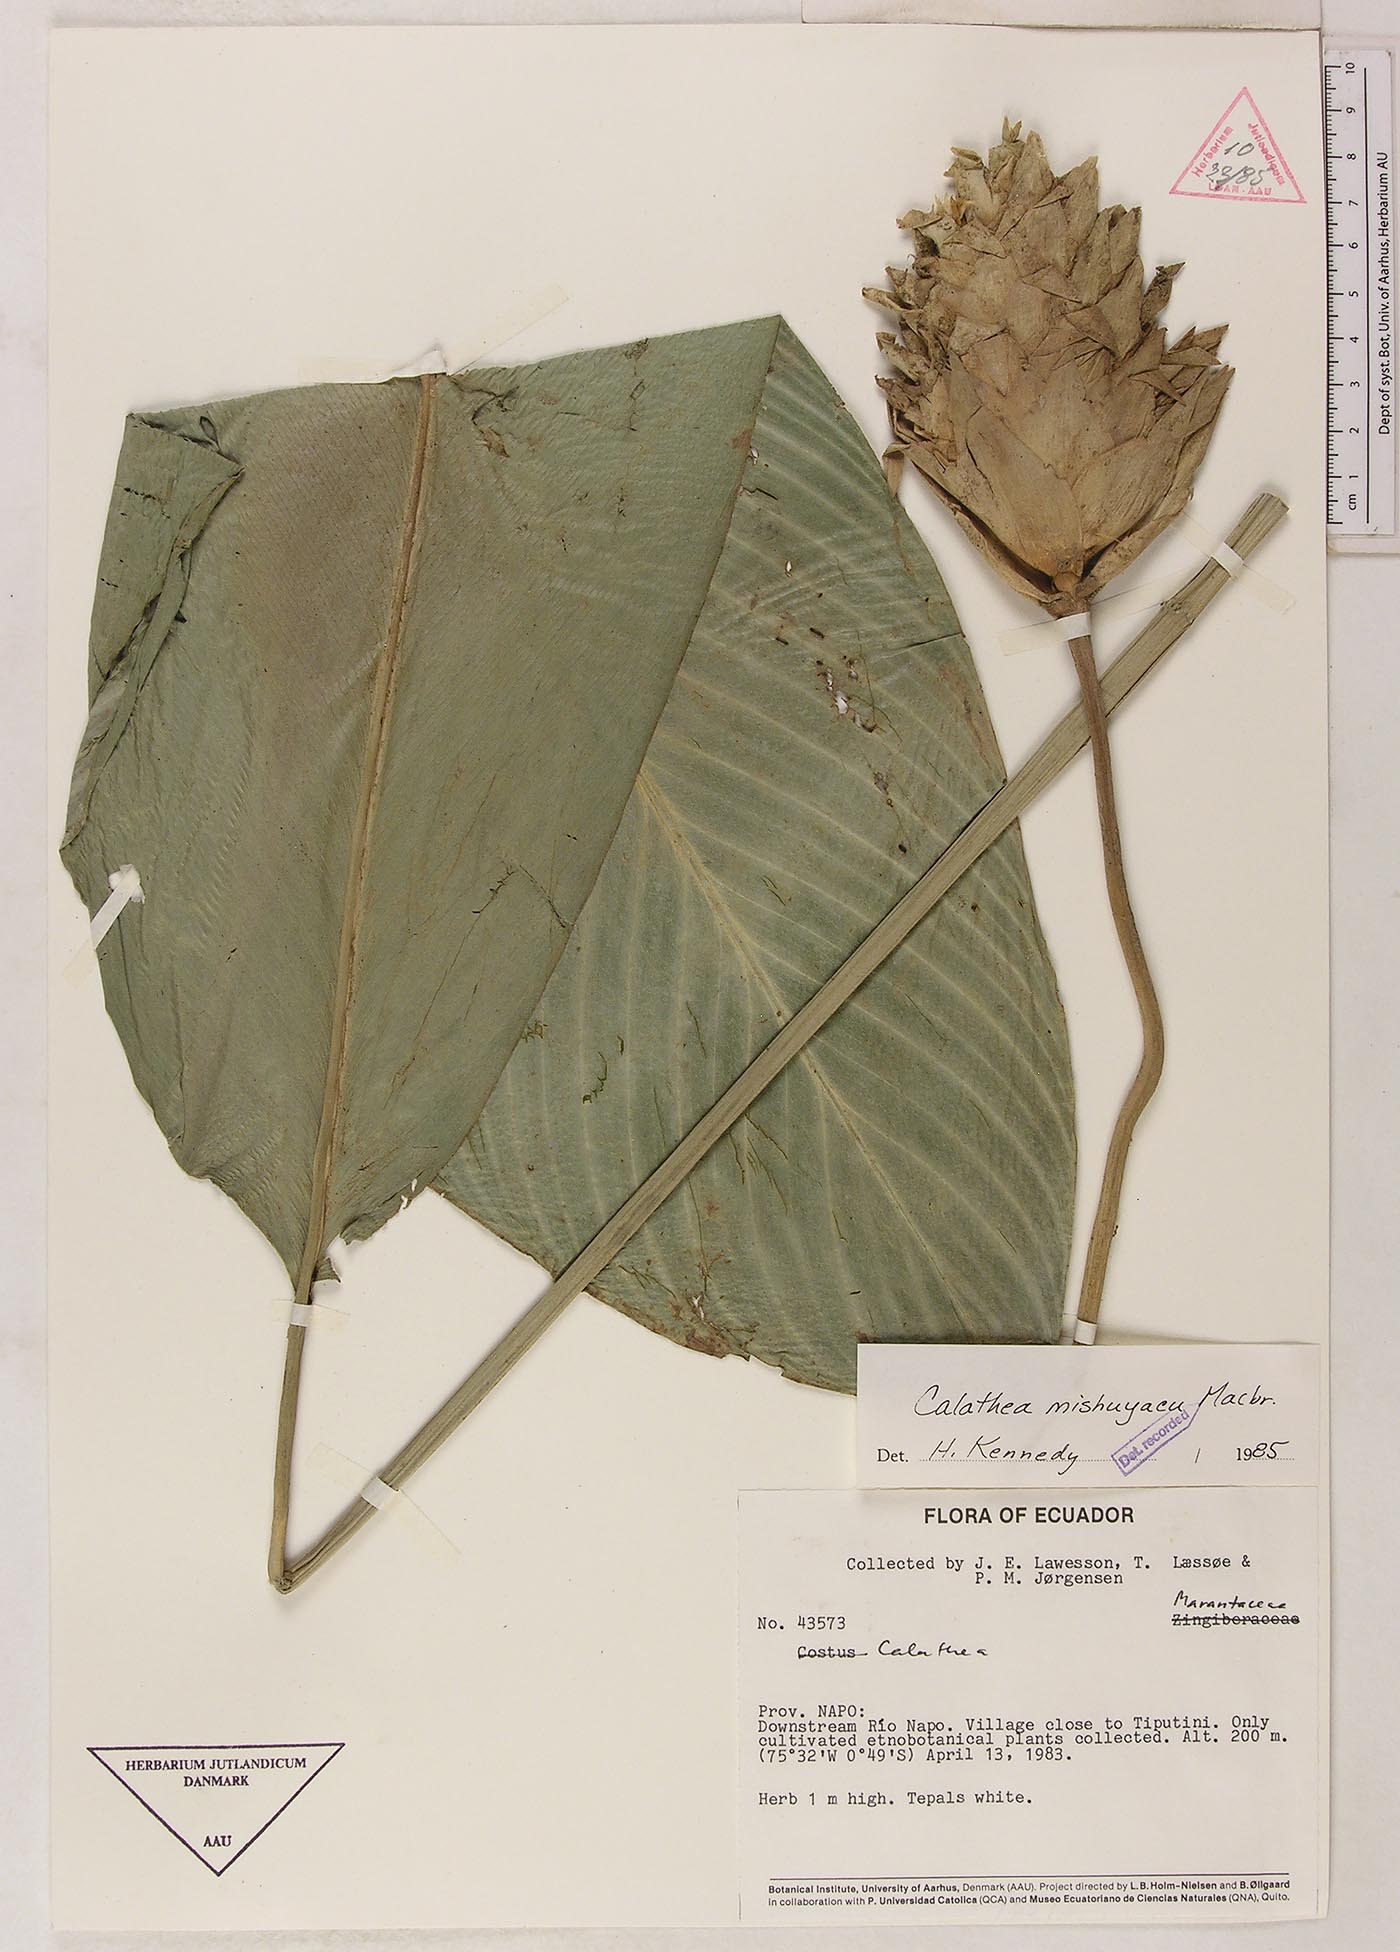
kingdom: Plantae
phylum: Tracheophyta
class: Liliopsida
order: Zingiberales
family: Marantaceae
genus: Goeppertia
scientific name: Goeppertia mishuyacu
